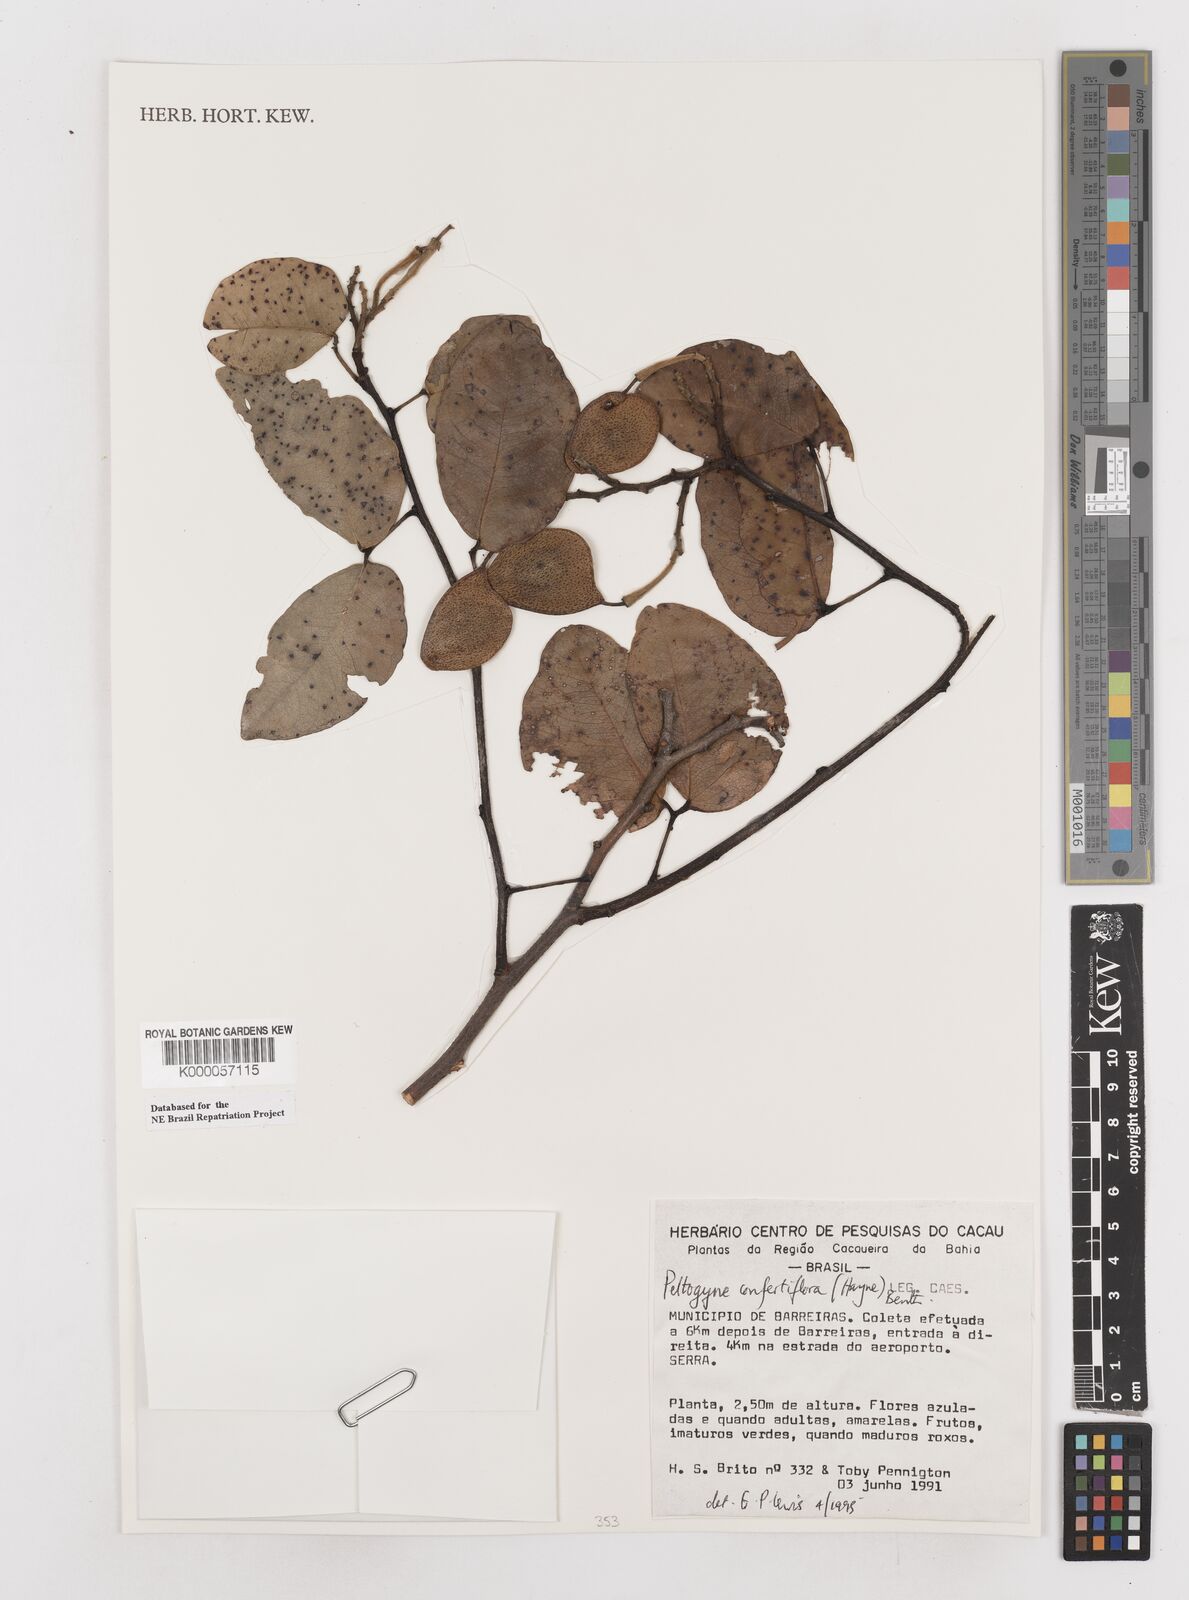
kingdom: Plantae
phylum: Tracheophyta
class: Magnoliopsida
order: Fabales
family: Fabaceae
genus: Peltogyne
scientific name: Peltogyne confertiflora
